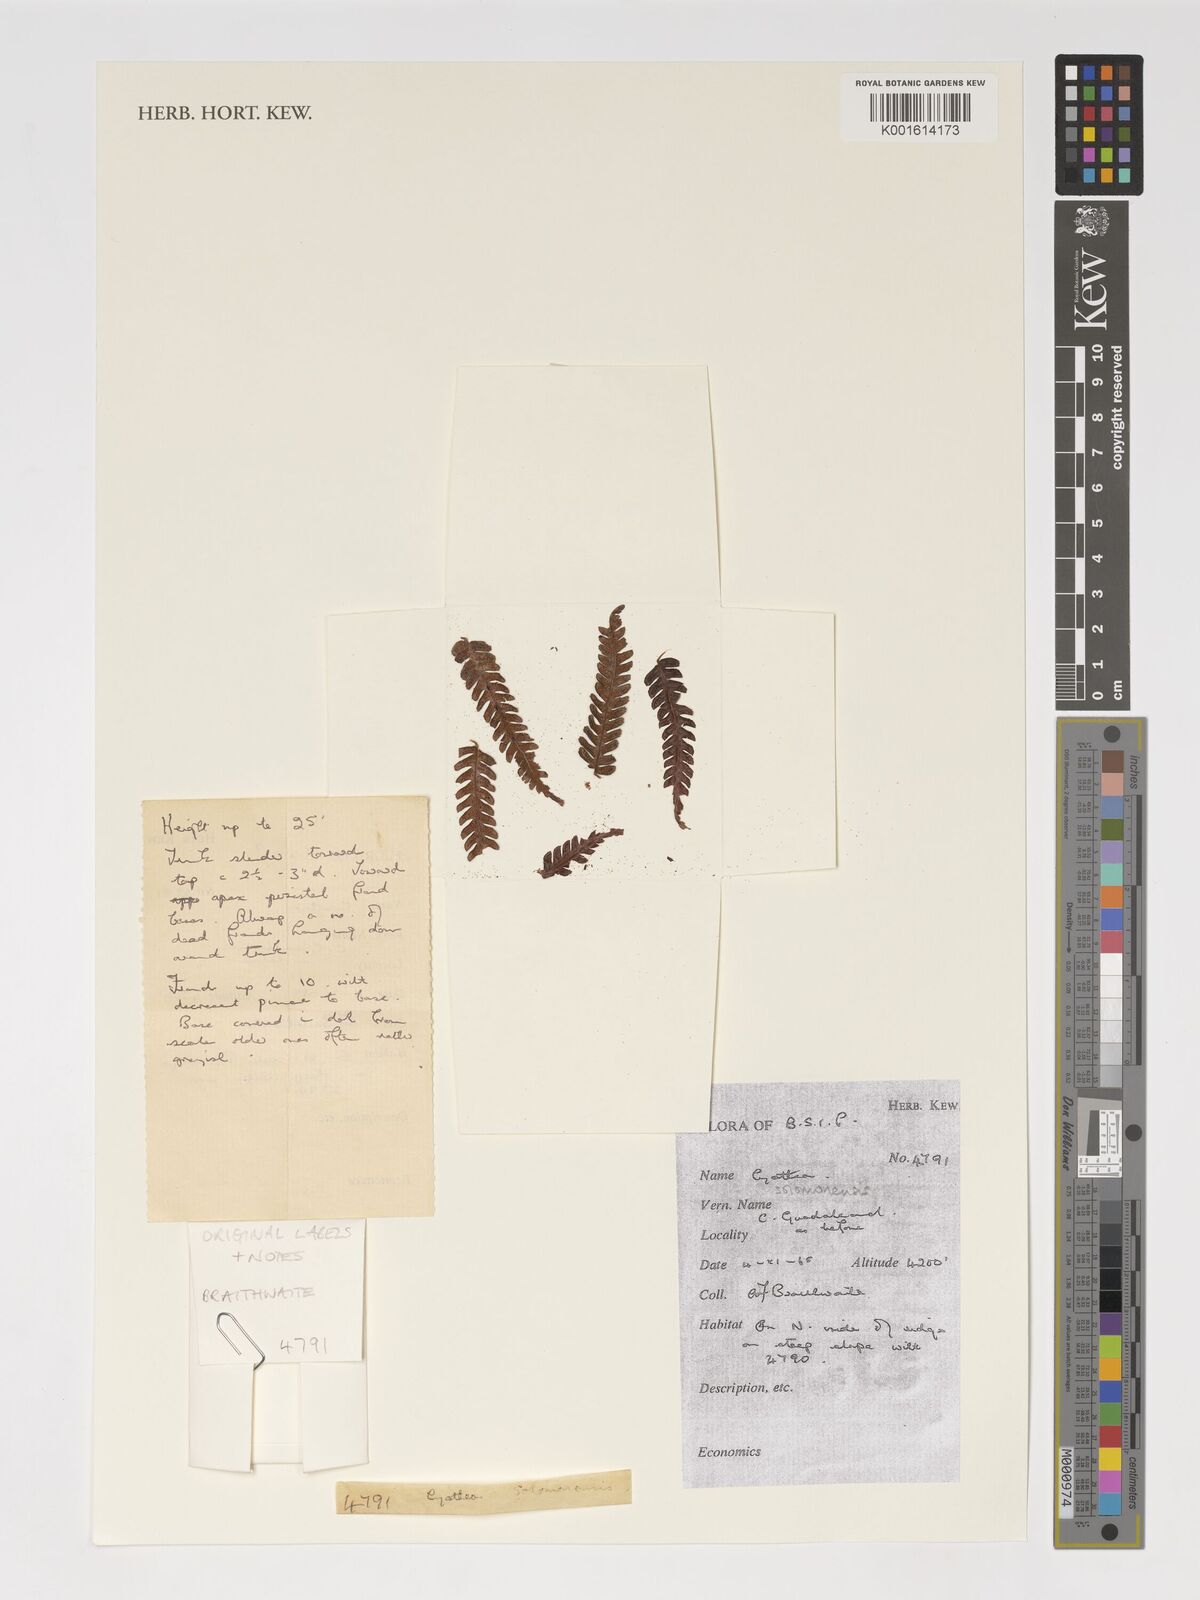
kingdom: Plantae
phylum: Tracheophyta
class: Polypodiopsida
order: Cyatheales
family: Cyatheaceae
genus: Alsophila
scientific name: Alsophila solomonensis
